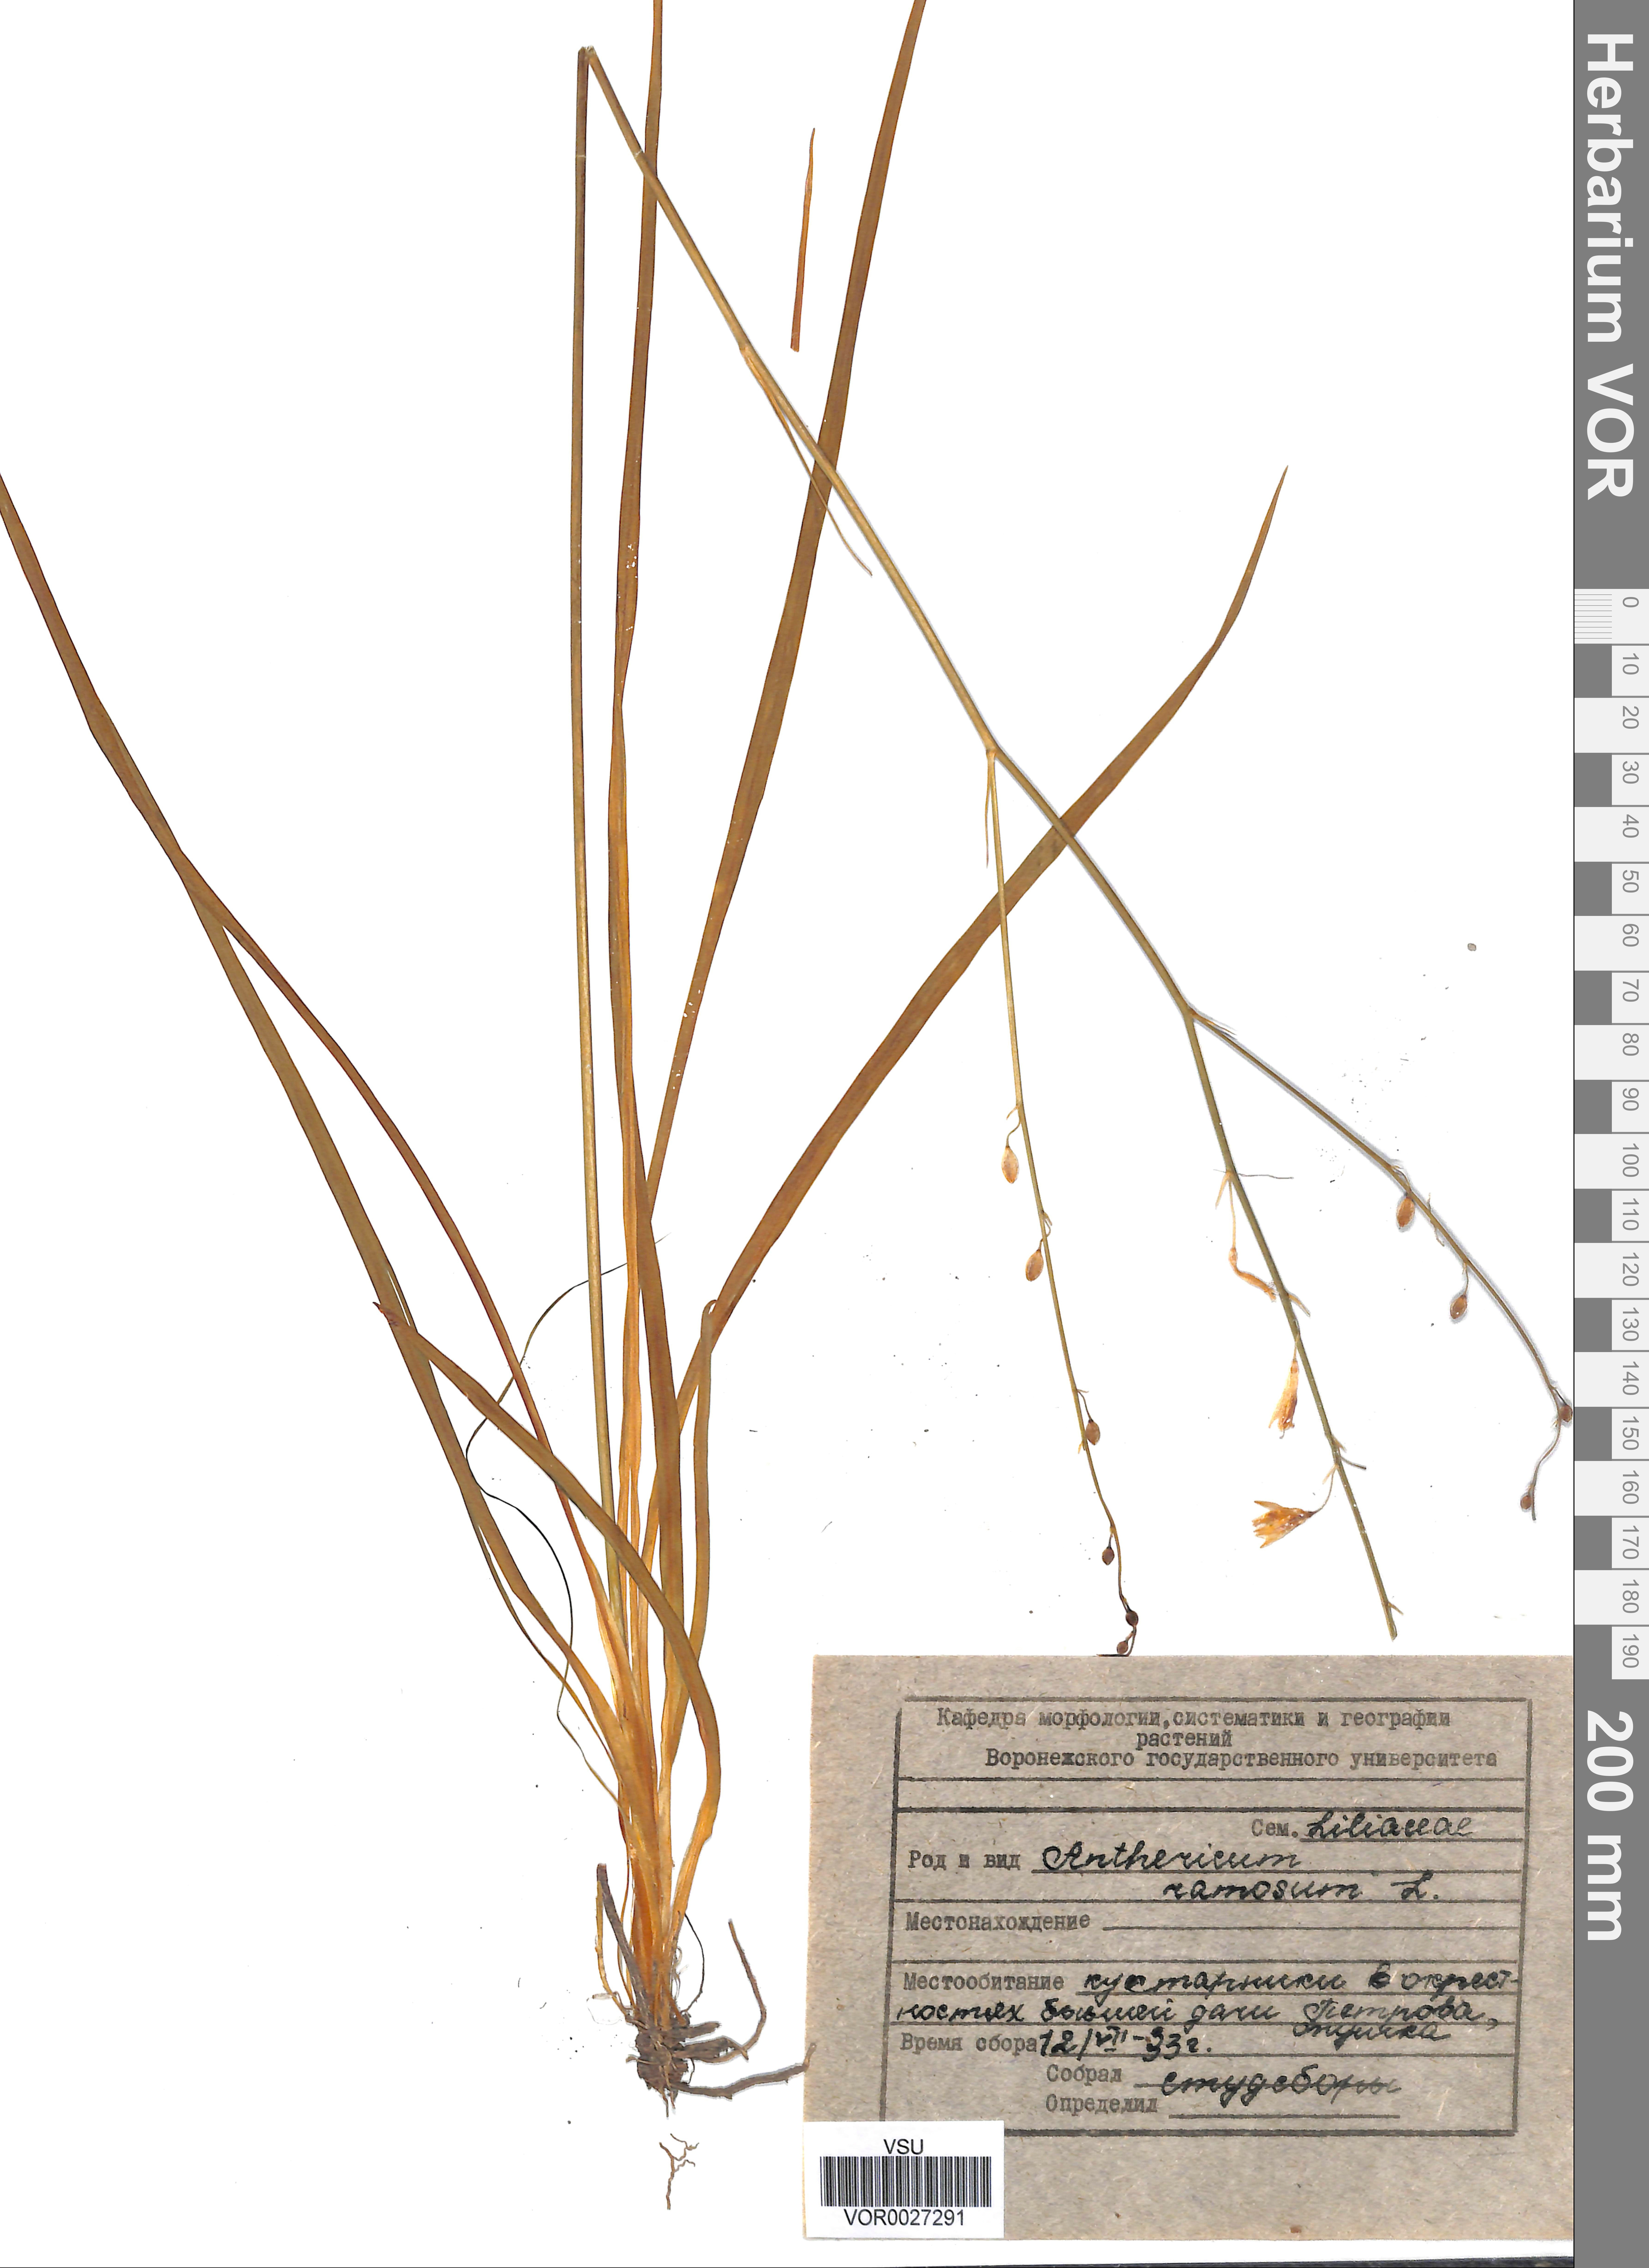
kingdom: Plantae
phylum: Tracheophyta
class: Liliopsida
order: Asparagales
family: Asparagaceae
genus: Anthericum
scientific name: Anthericum ramosum
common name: Branched st. bernard's-lily
